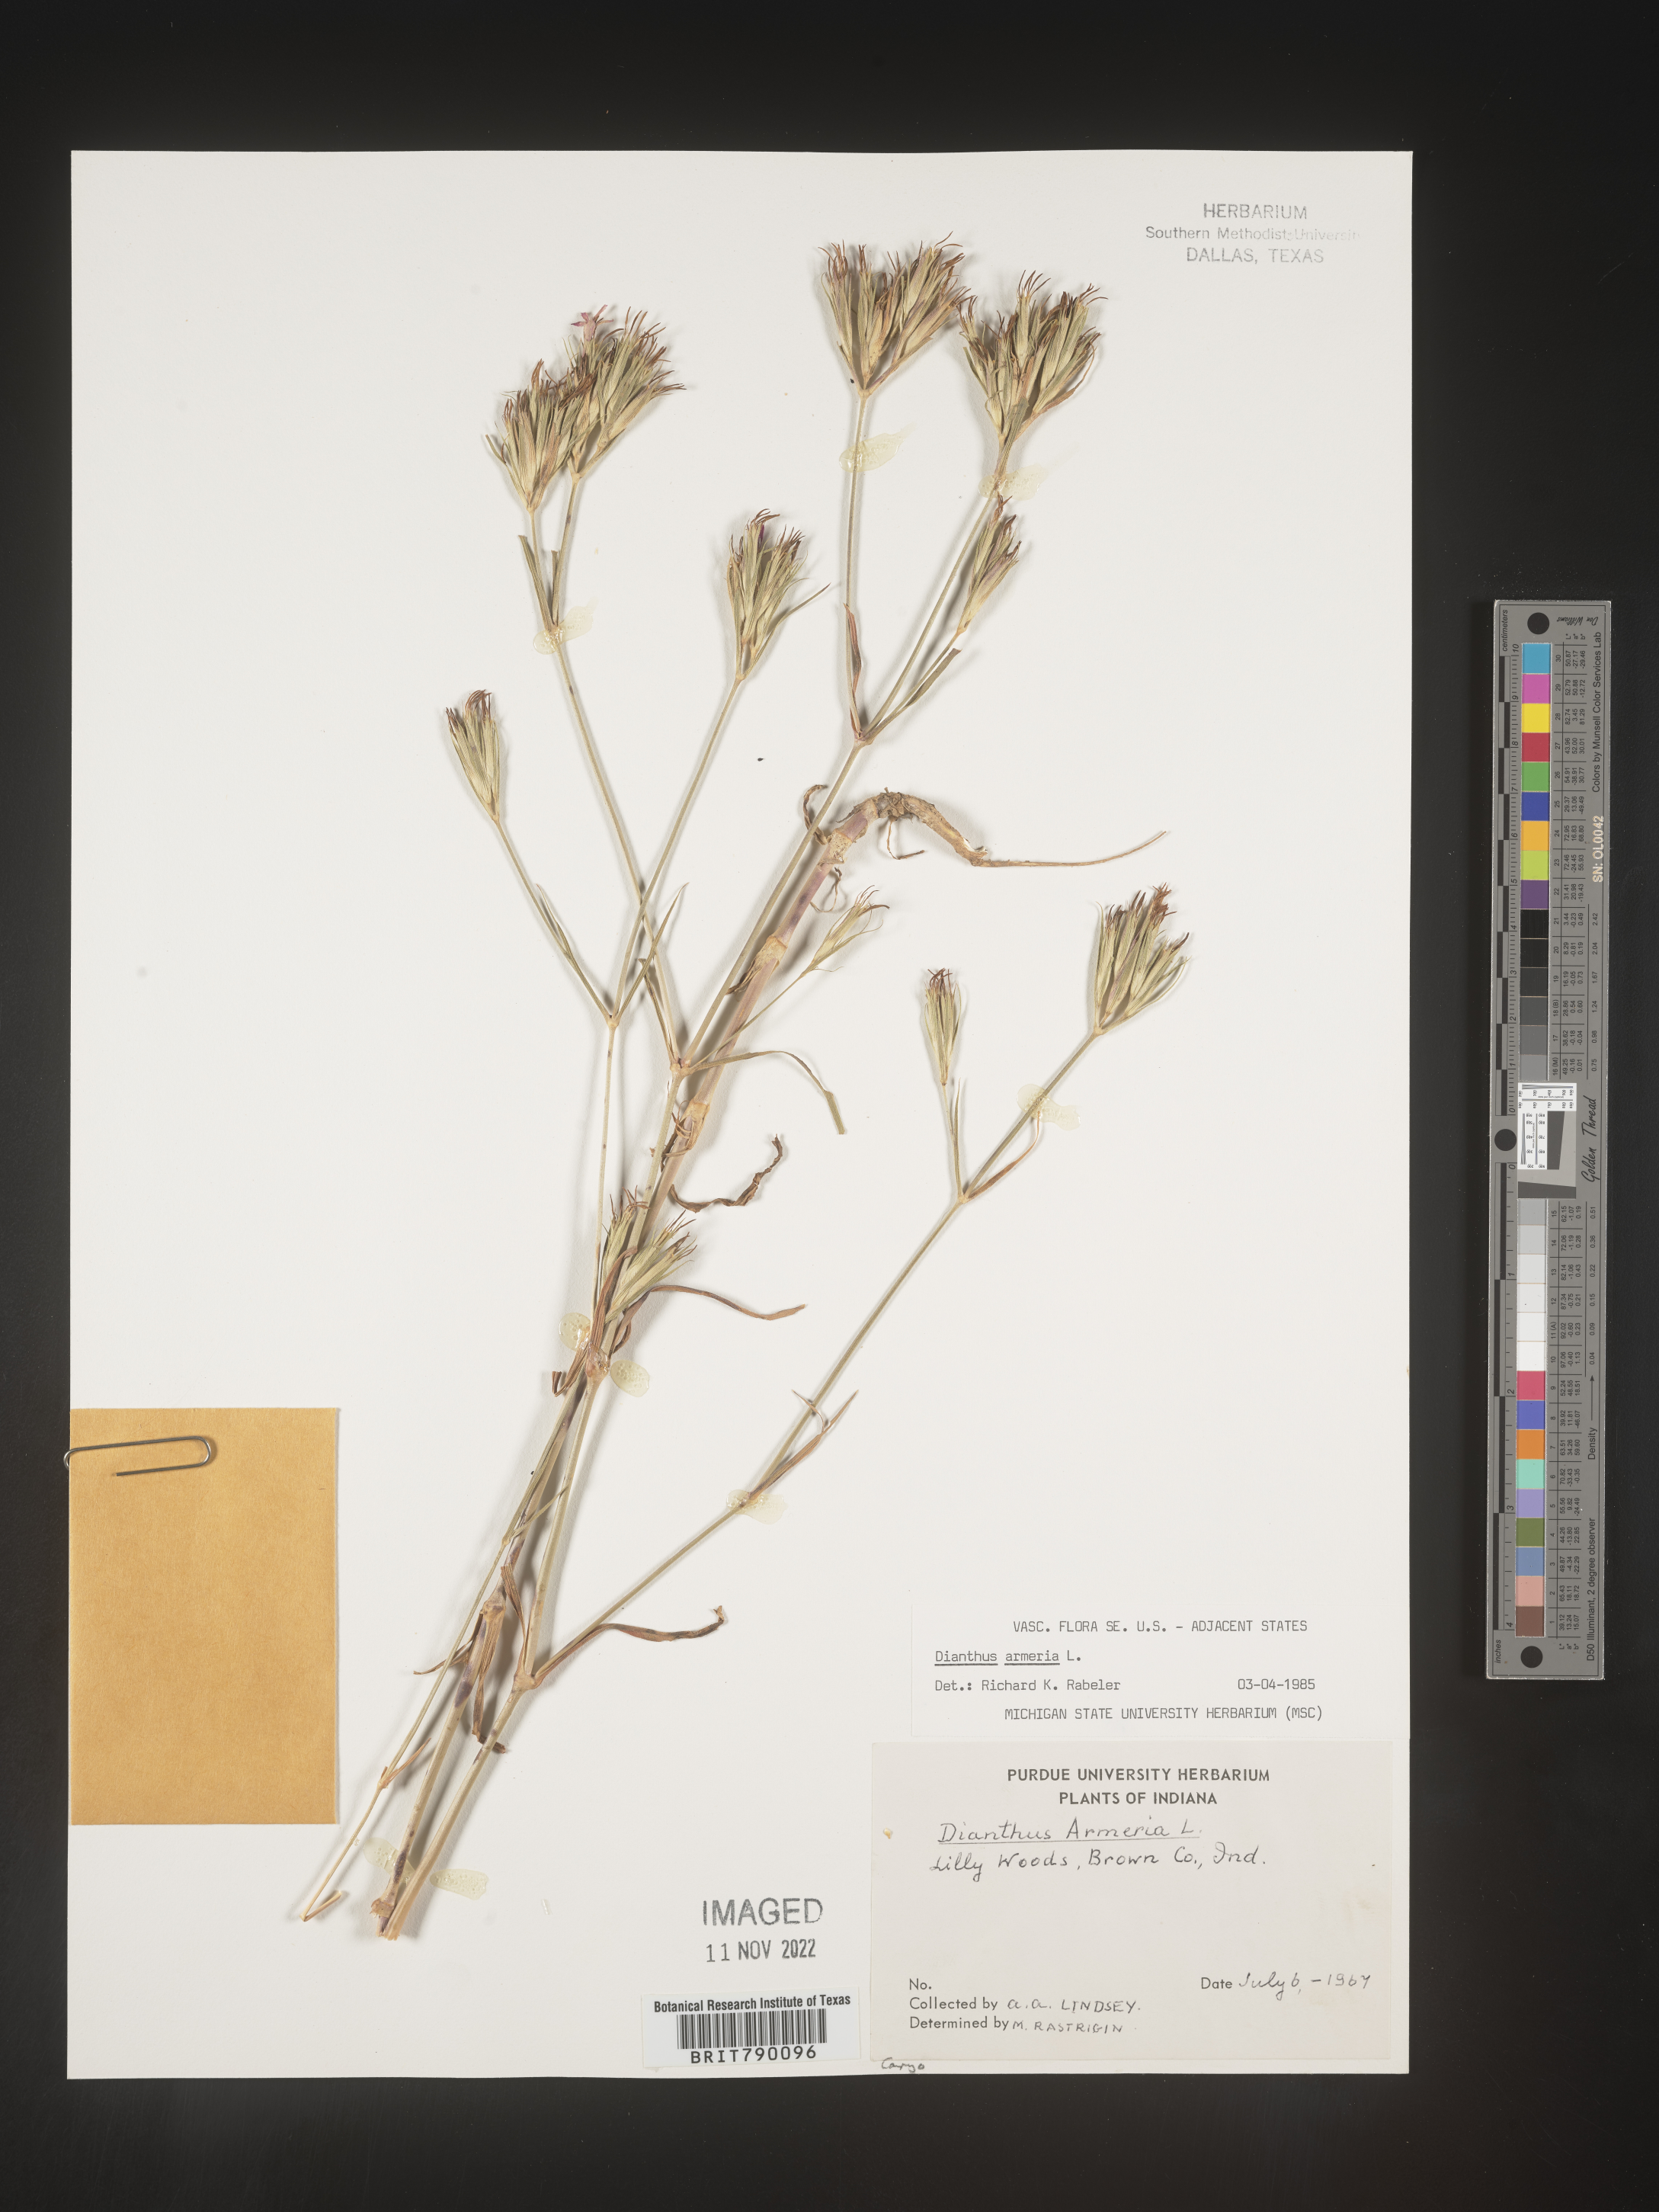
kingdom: Plantae
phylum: Tracheophyta
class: Magnoliopsida
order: Caryophyllales
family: Caryophyllaceae
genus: Dianthus
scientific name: Dianthus armeria
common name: Deptford pink
